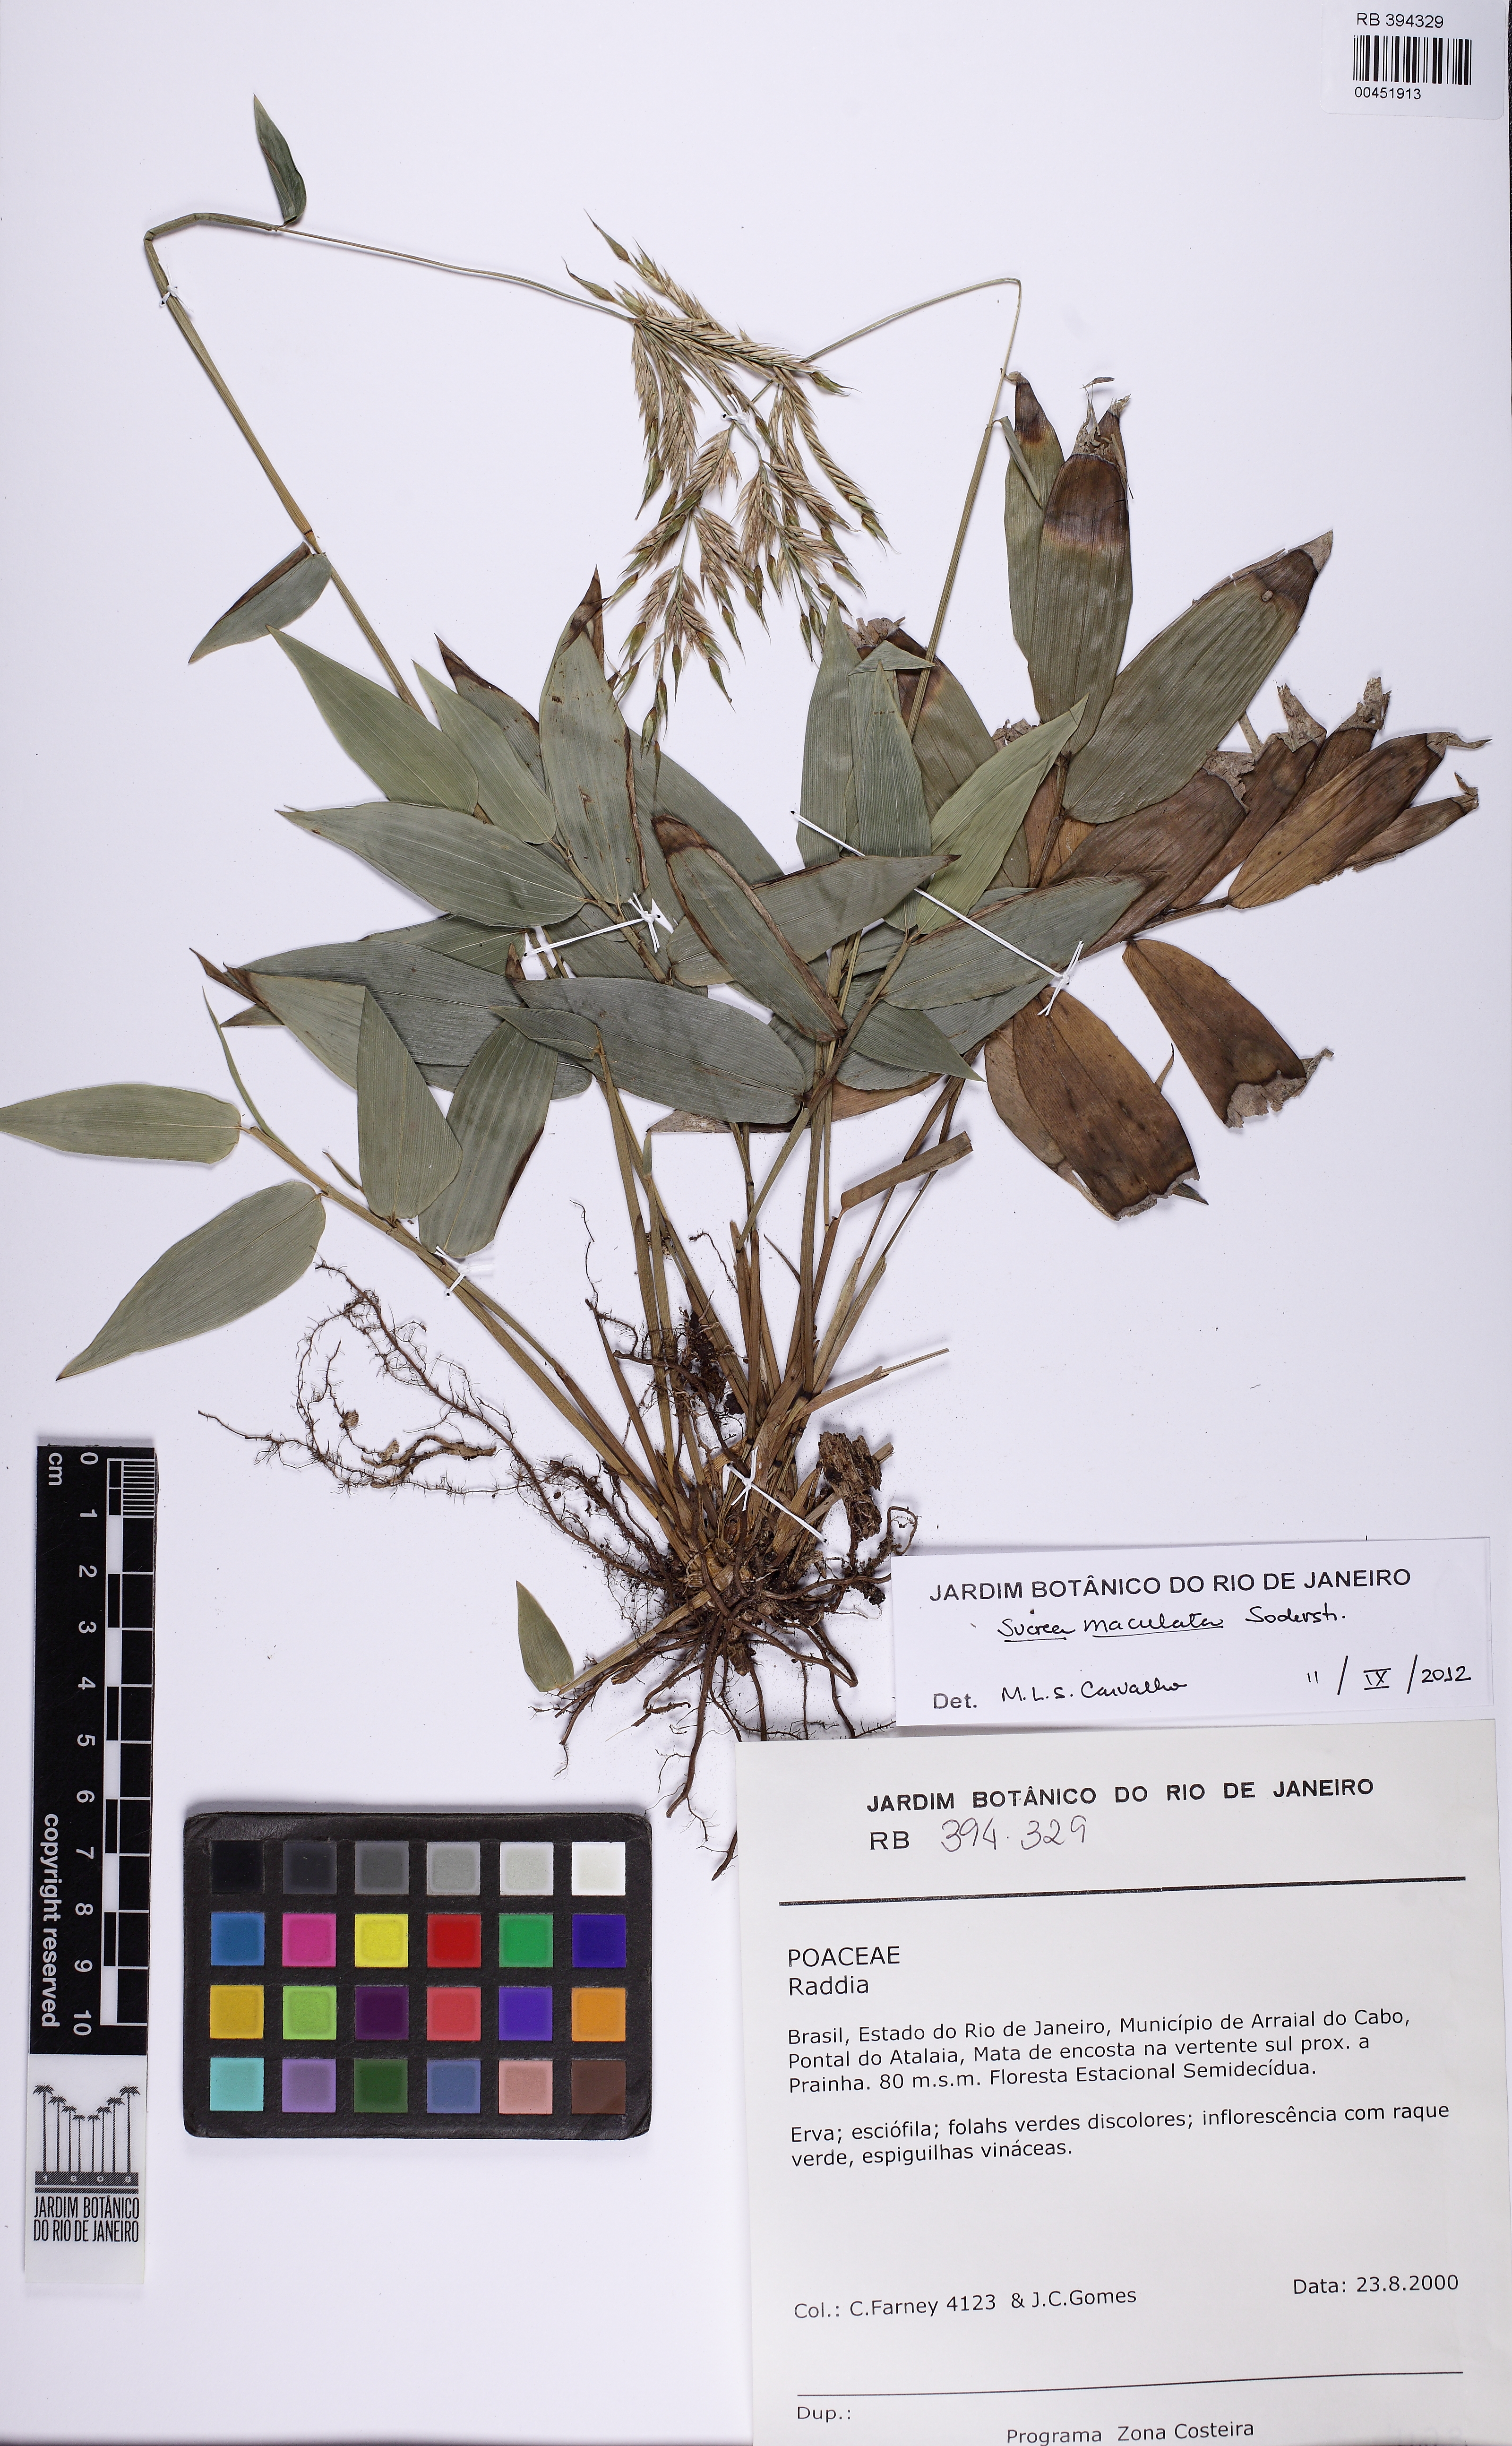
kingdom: Plantae
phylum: Tracheophyta
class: Liliopsida
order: Poales
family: Poaceae
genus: Raddia
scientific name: Raddia maculata
